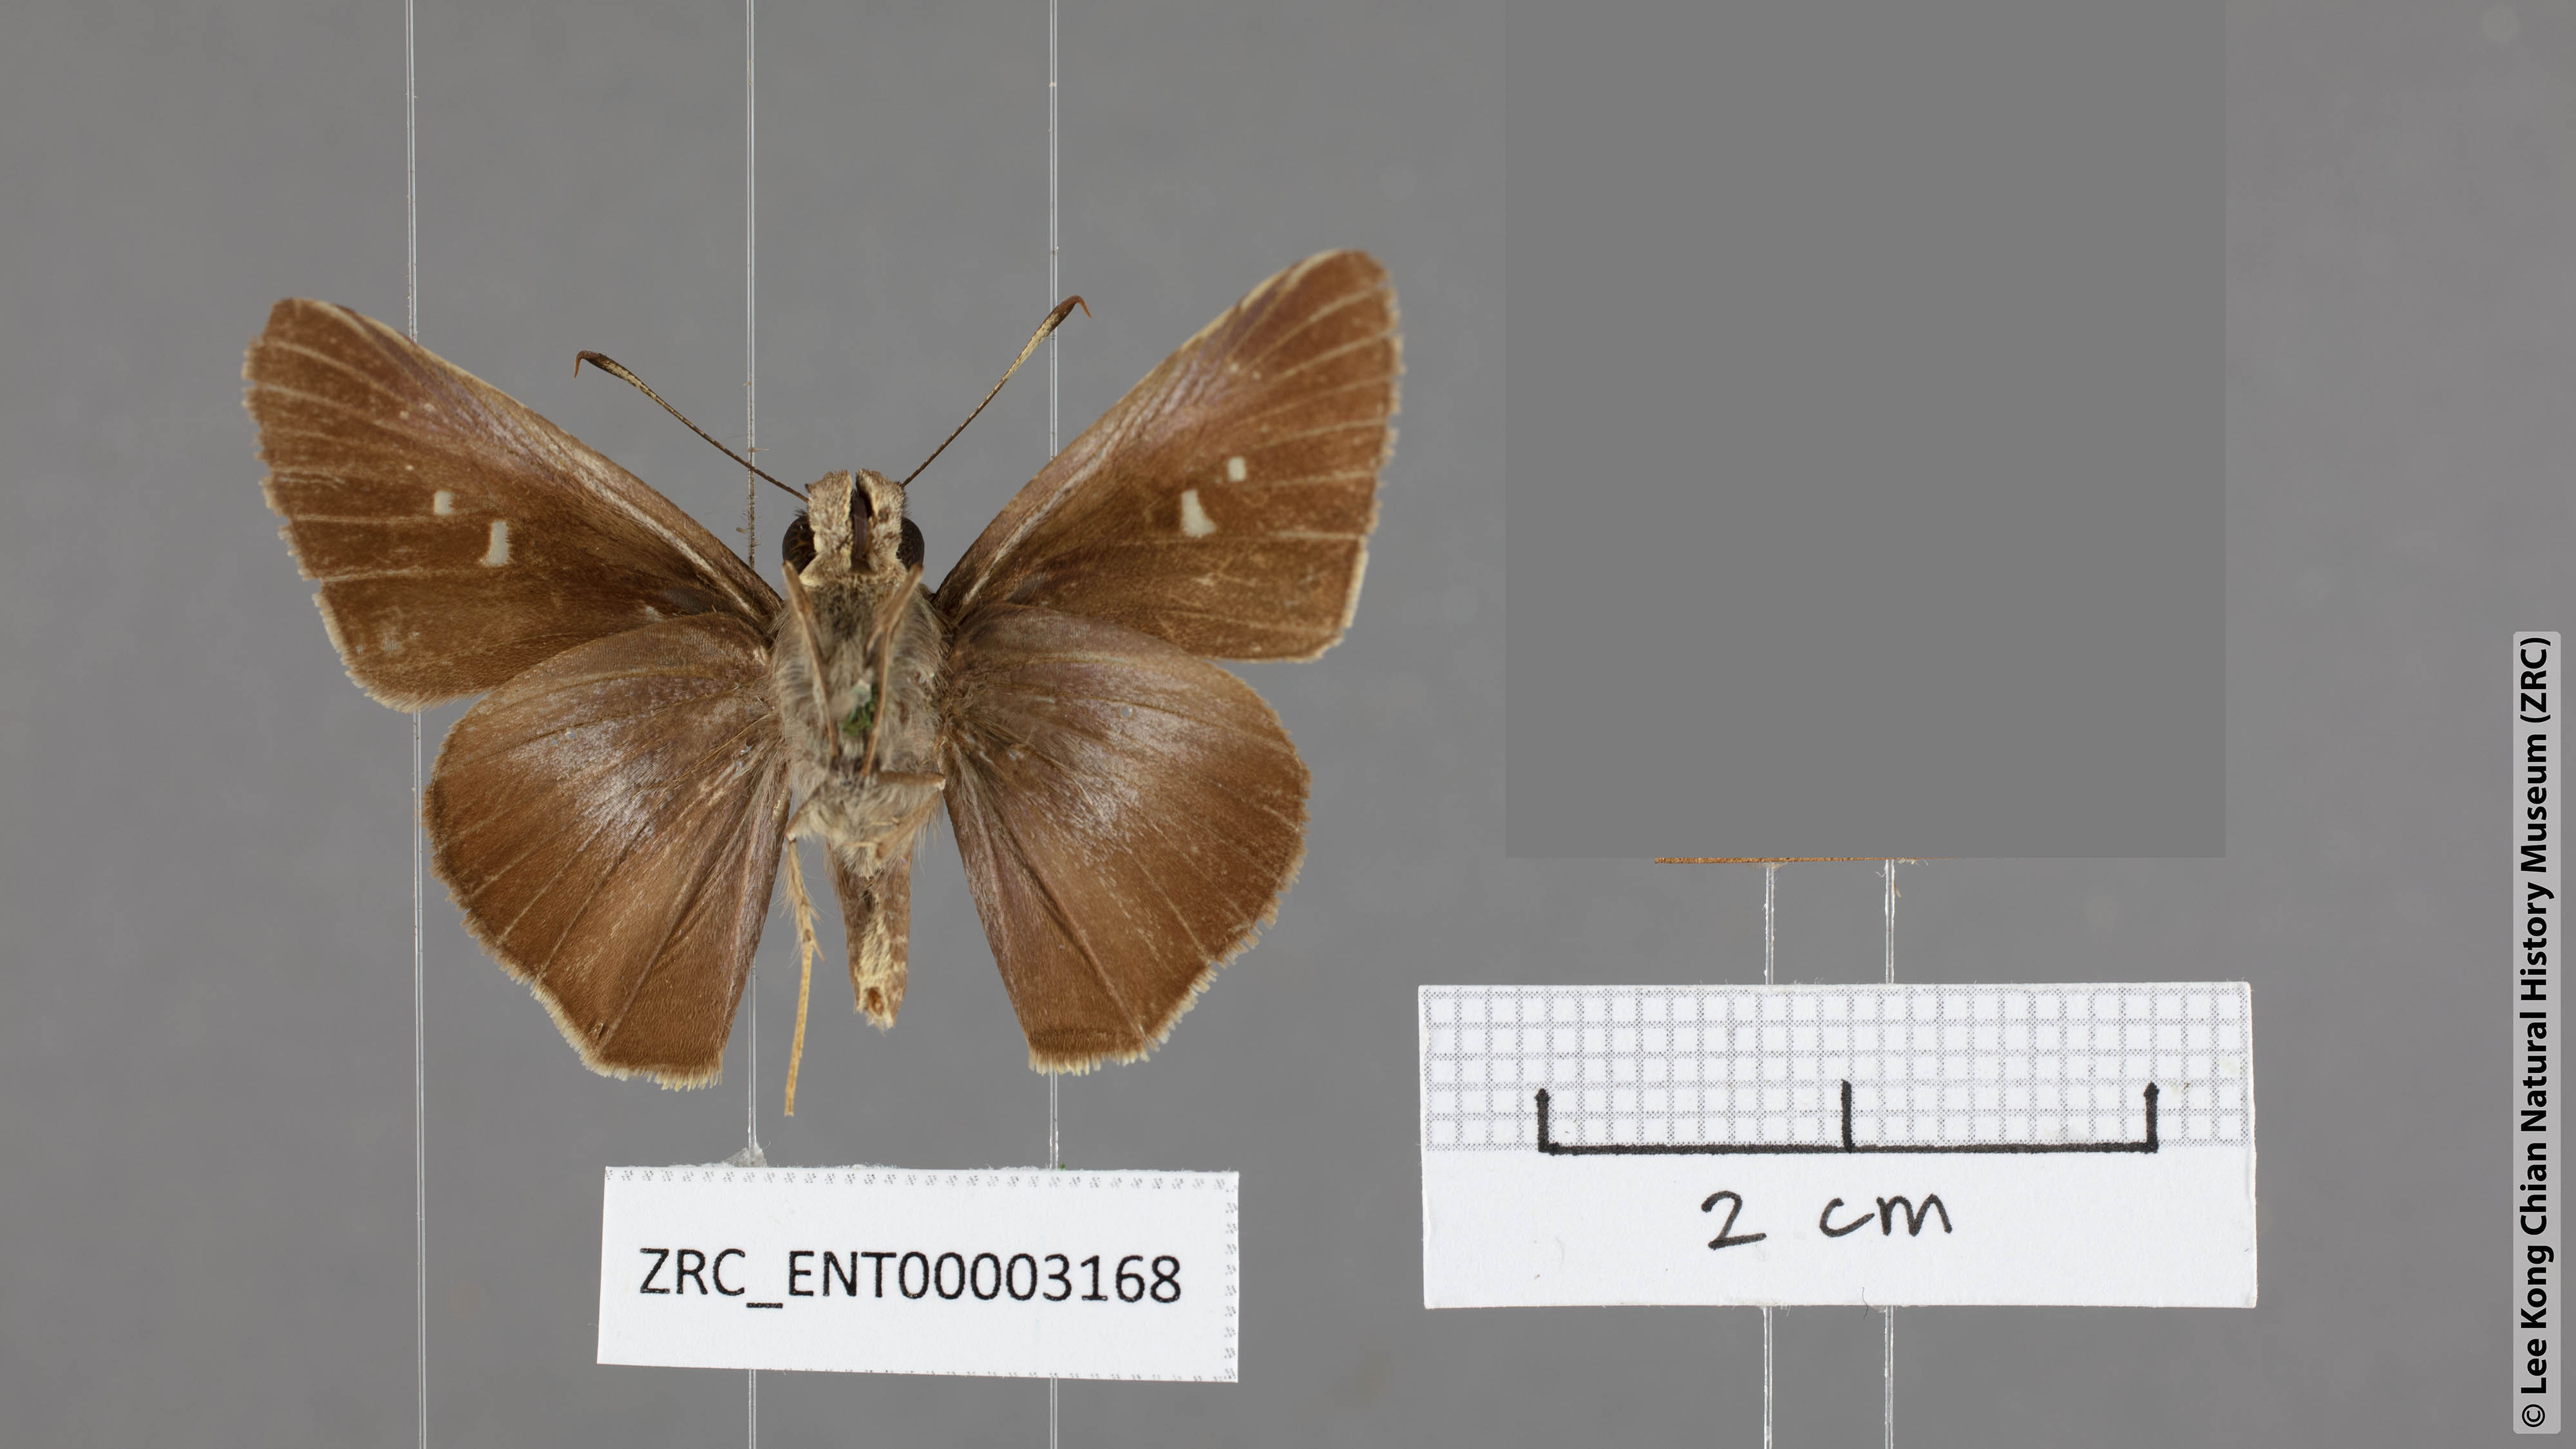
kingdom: Animalia
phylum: Arthropoda
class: Insecta
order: Lepidoptera
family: Hesperiidae
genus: Caltoris
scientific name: Caltoris tulsi
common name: Purple swift
